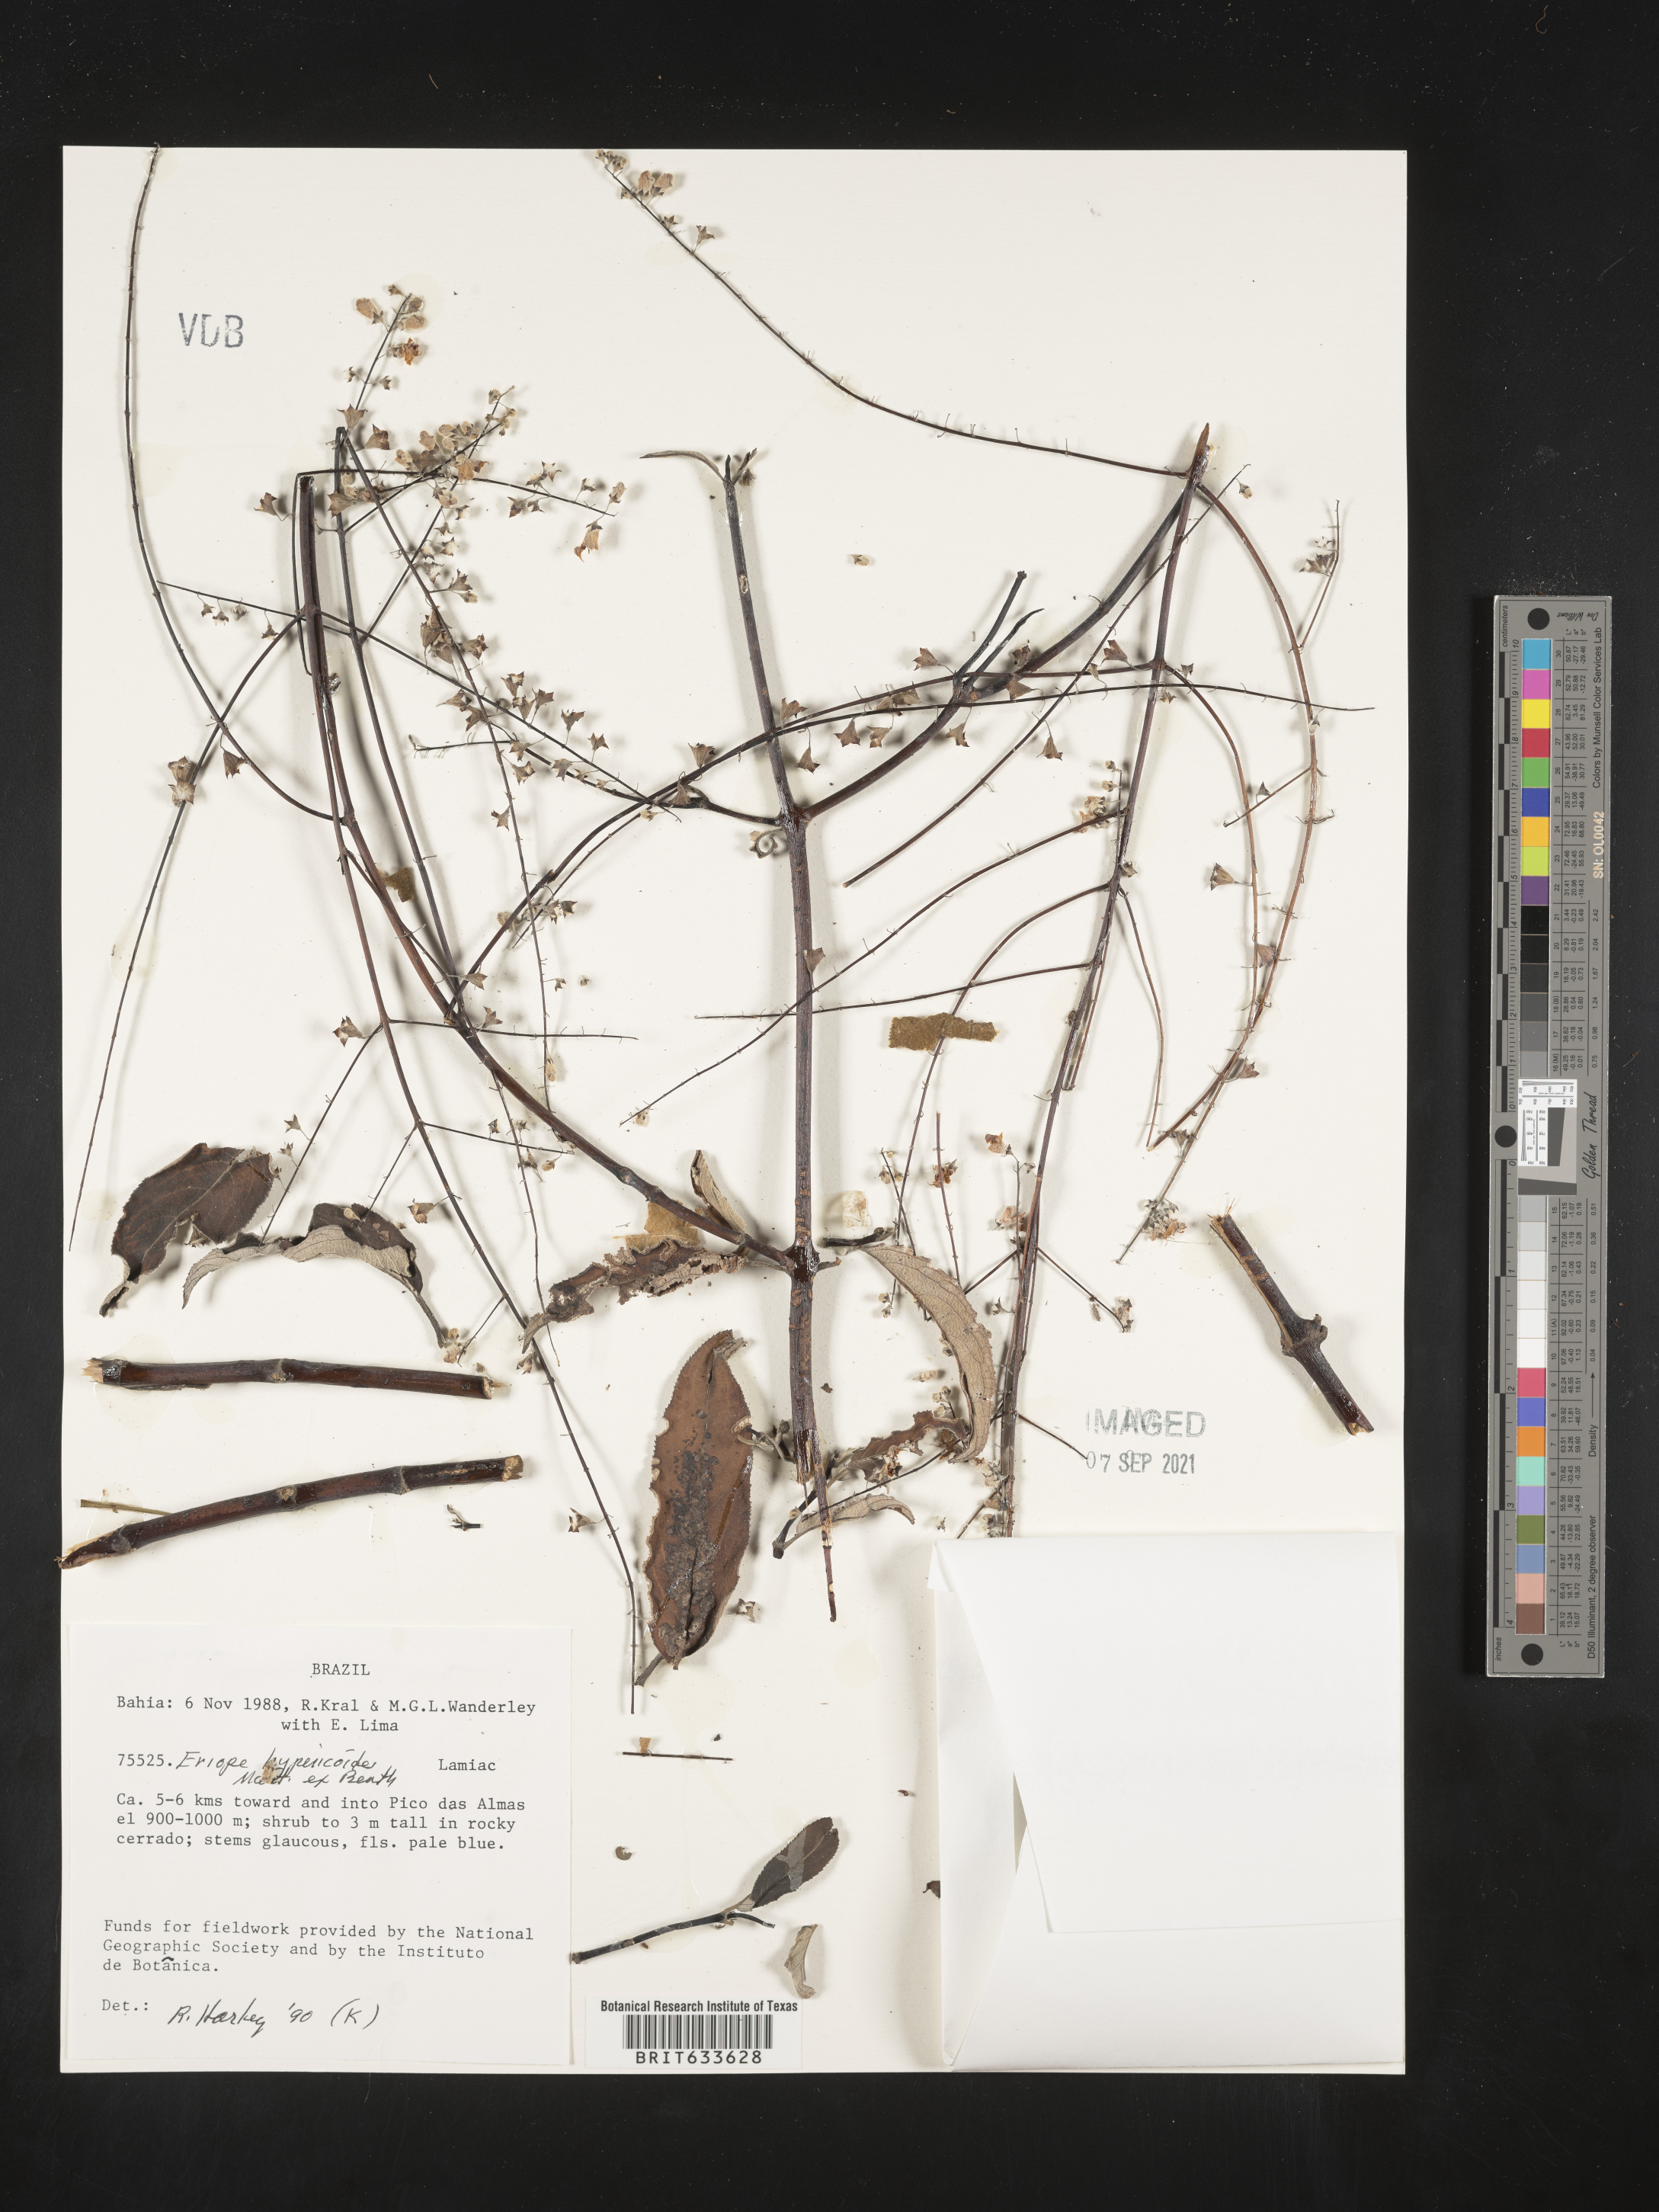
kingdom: Plantae
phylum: Tracheophyta
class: Magnoliopsida
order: Lamiales
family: Lamiaceae
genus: Eriope
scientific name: Eriope
